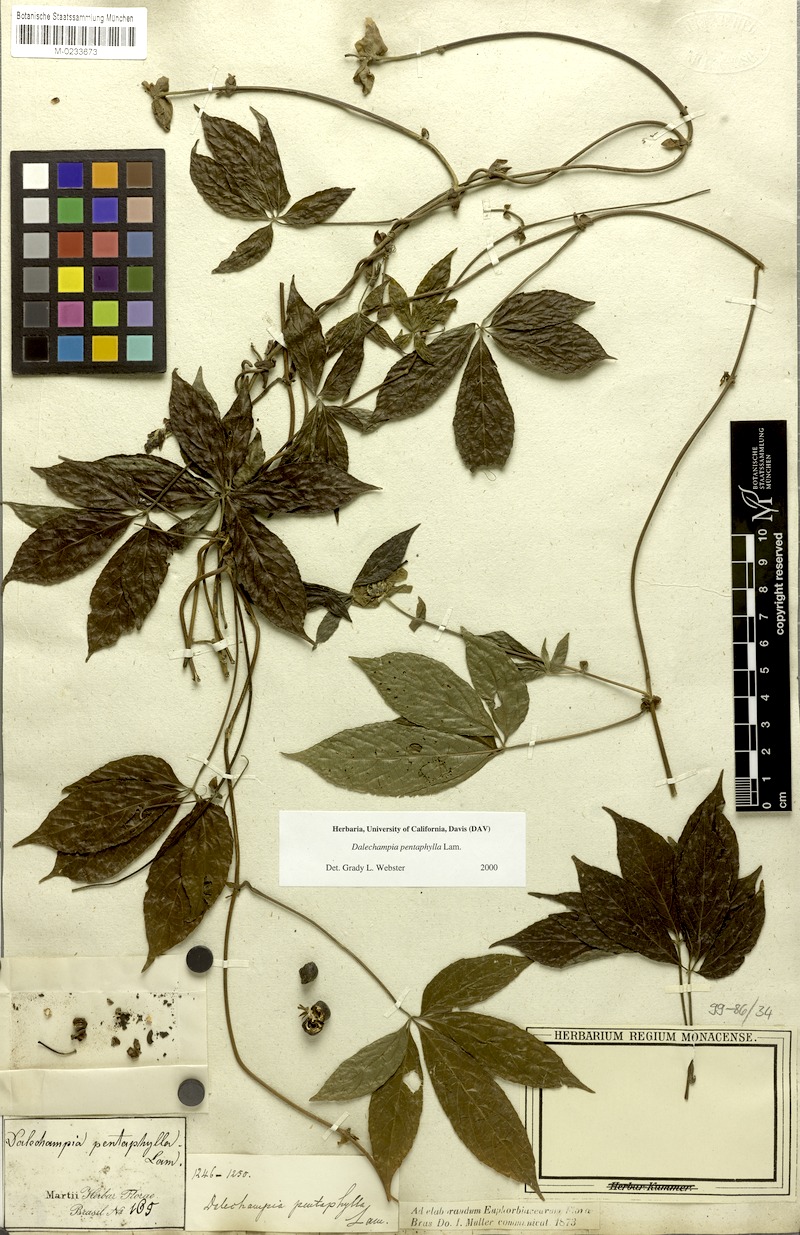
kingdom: Plantae
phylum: Tracheophyta
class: Magnoliopsida
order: Malpighiales
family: Euphorbiaceae
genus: Dalechampia
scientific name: Dalechampia pentaphylla
